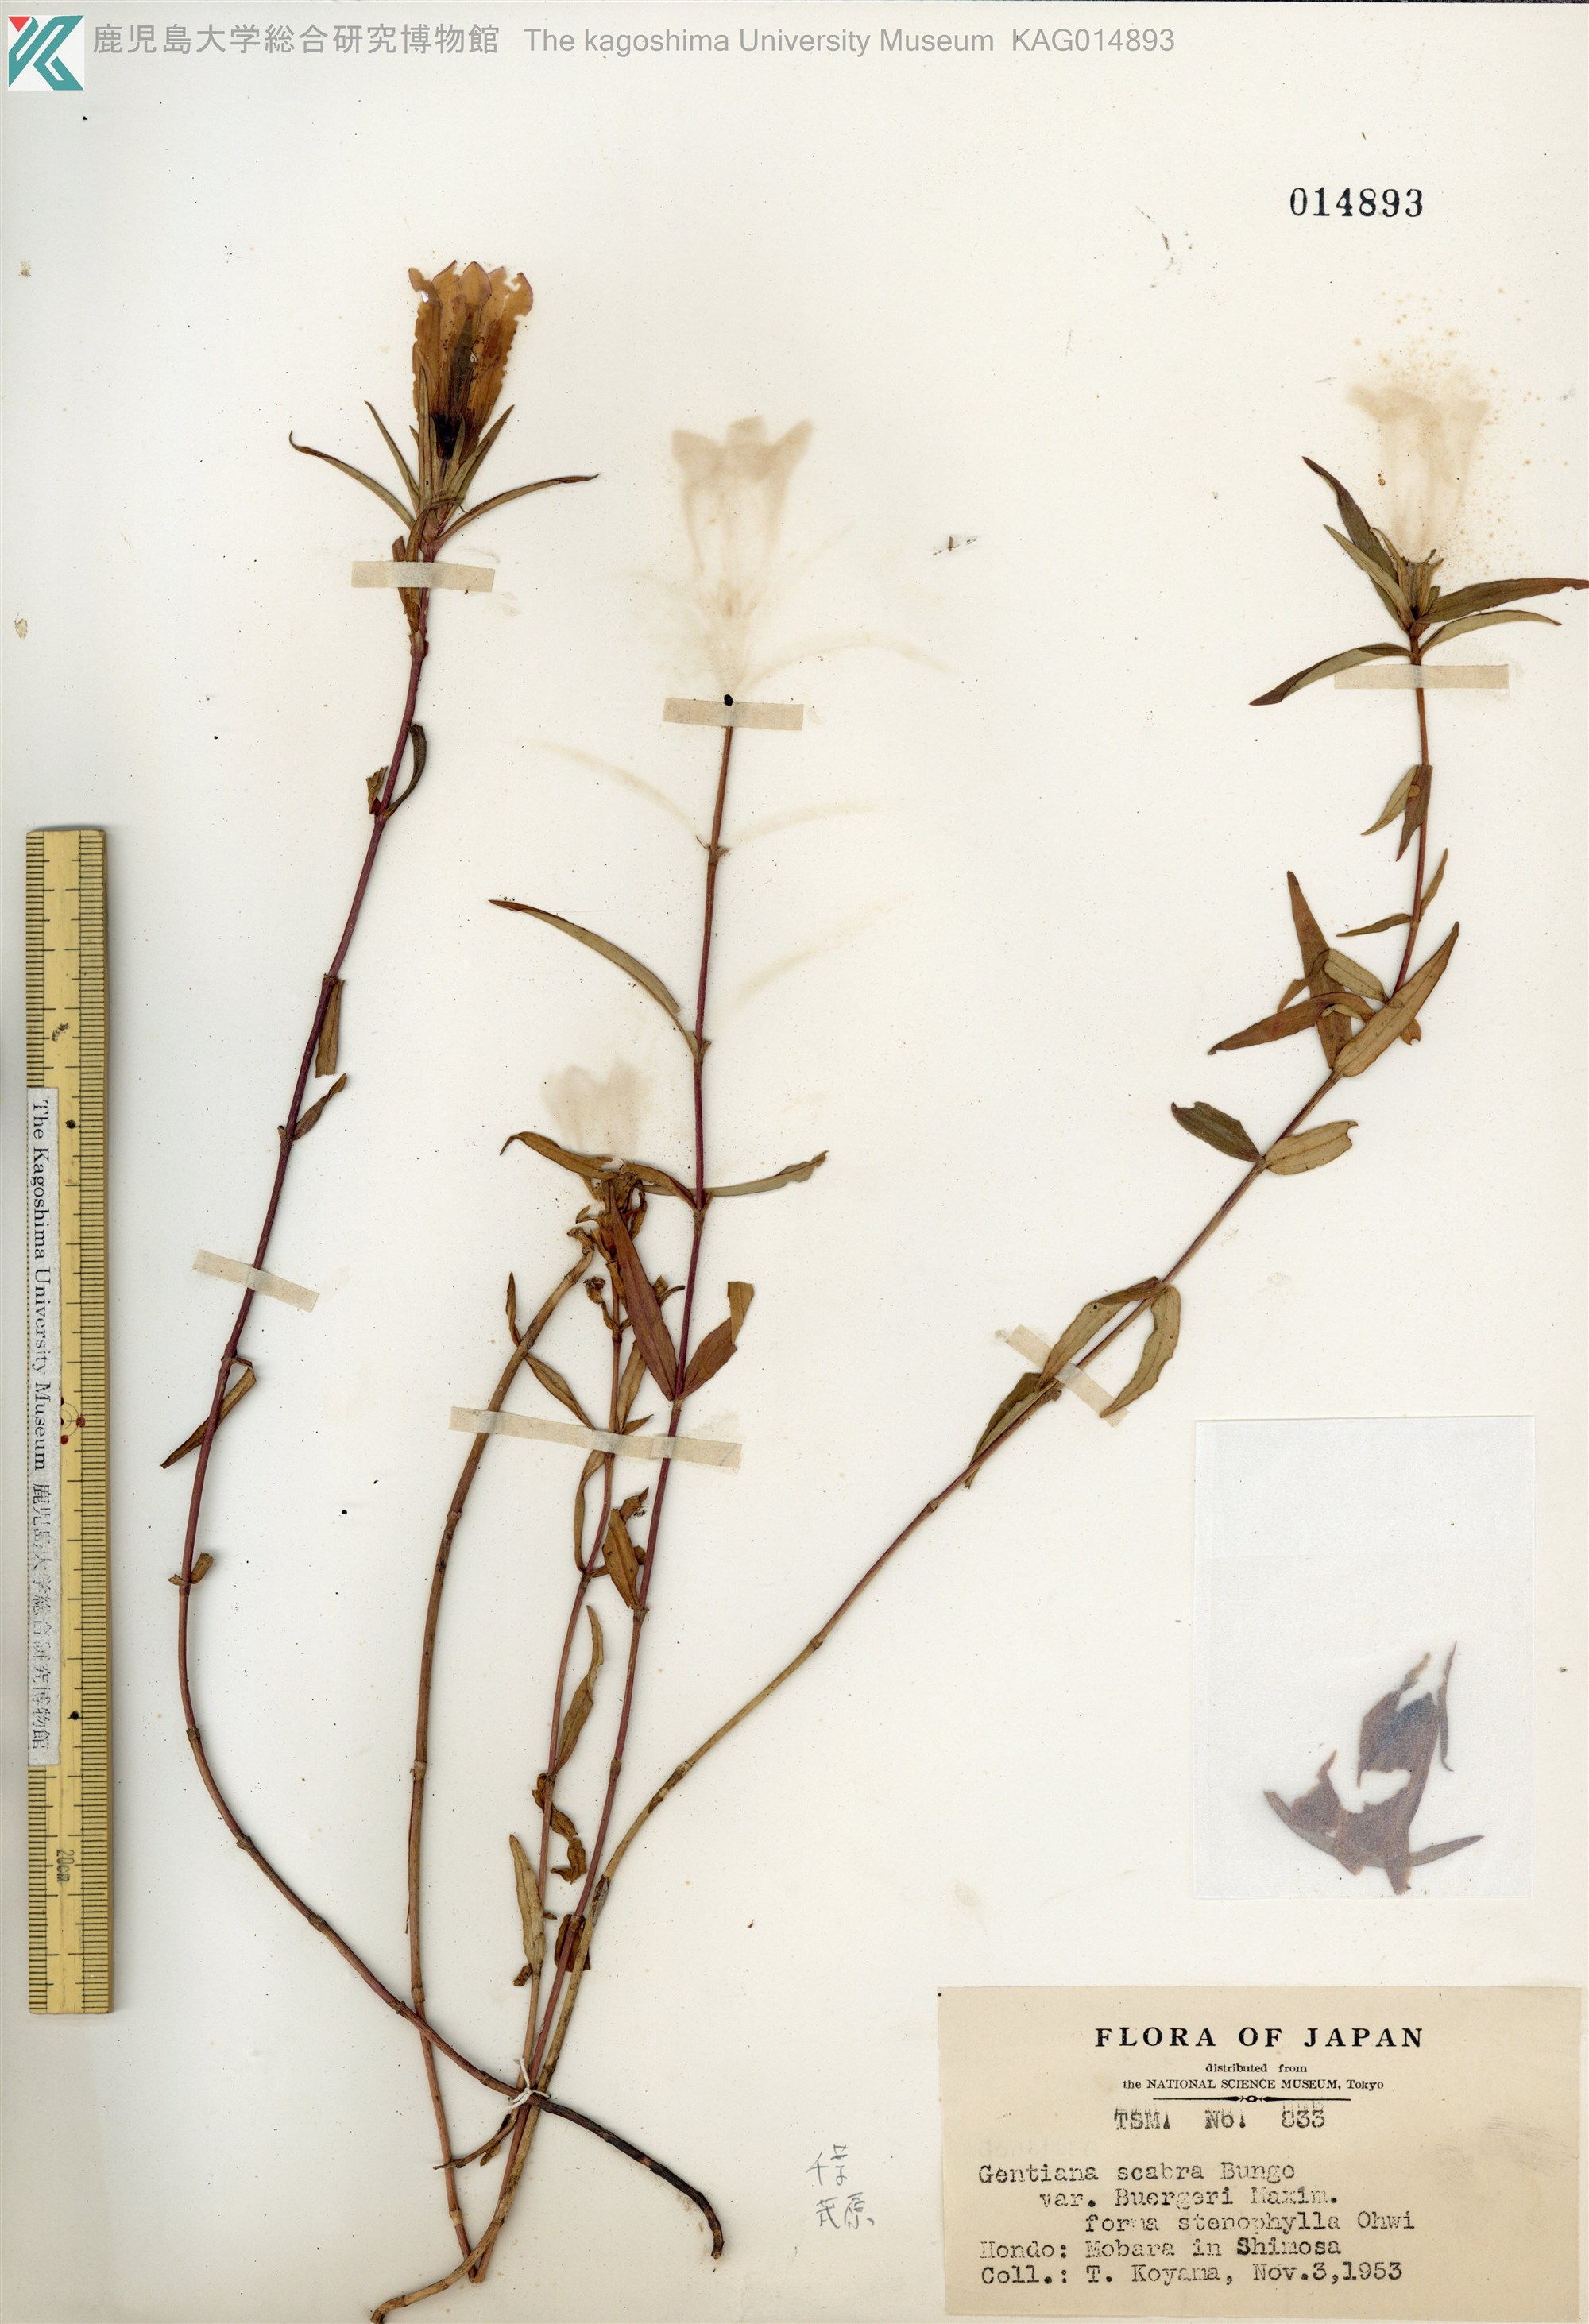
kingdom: Plantae
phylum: Tracheophyta
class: Magnoliopsida
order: Gentianales
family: Gentianaceae
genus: Gentiana
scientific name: Gentiana scabra
